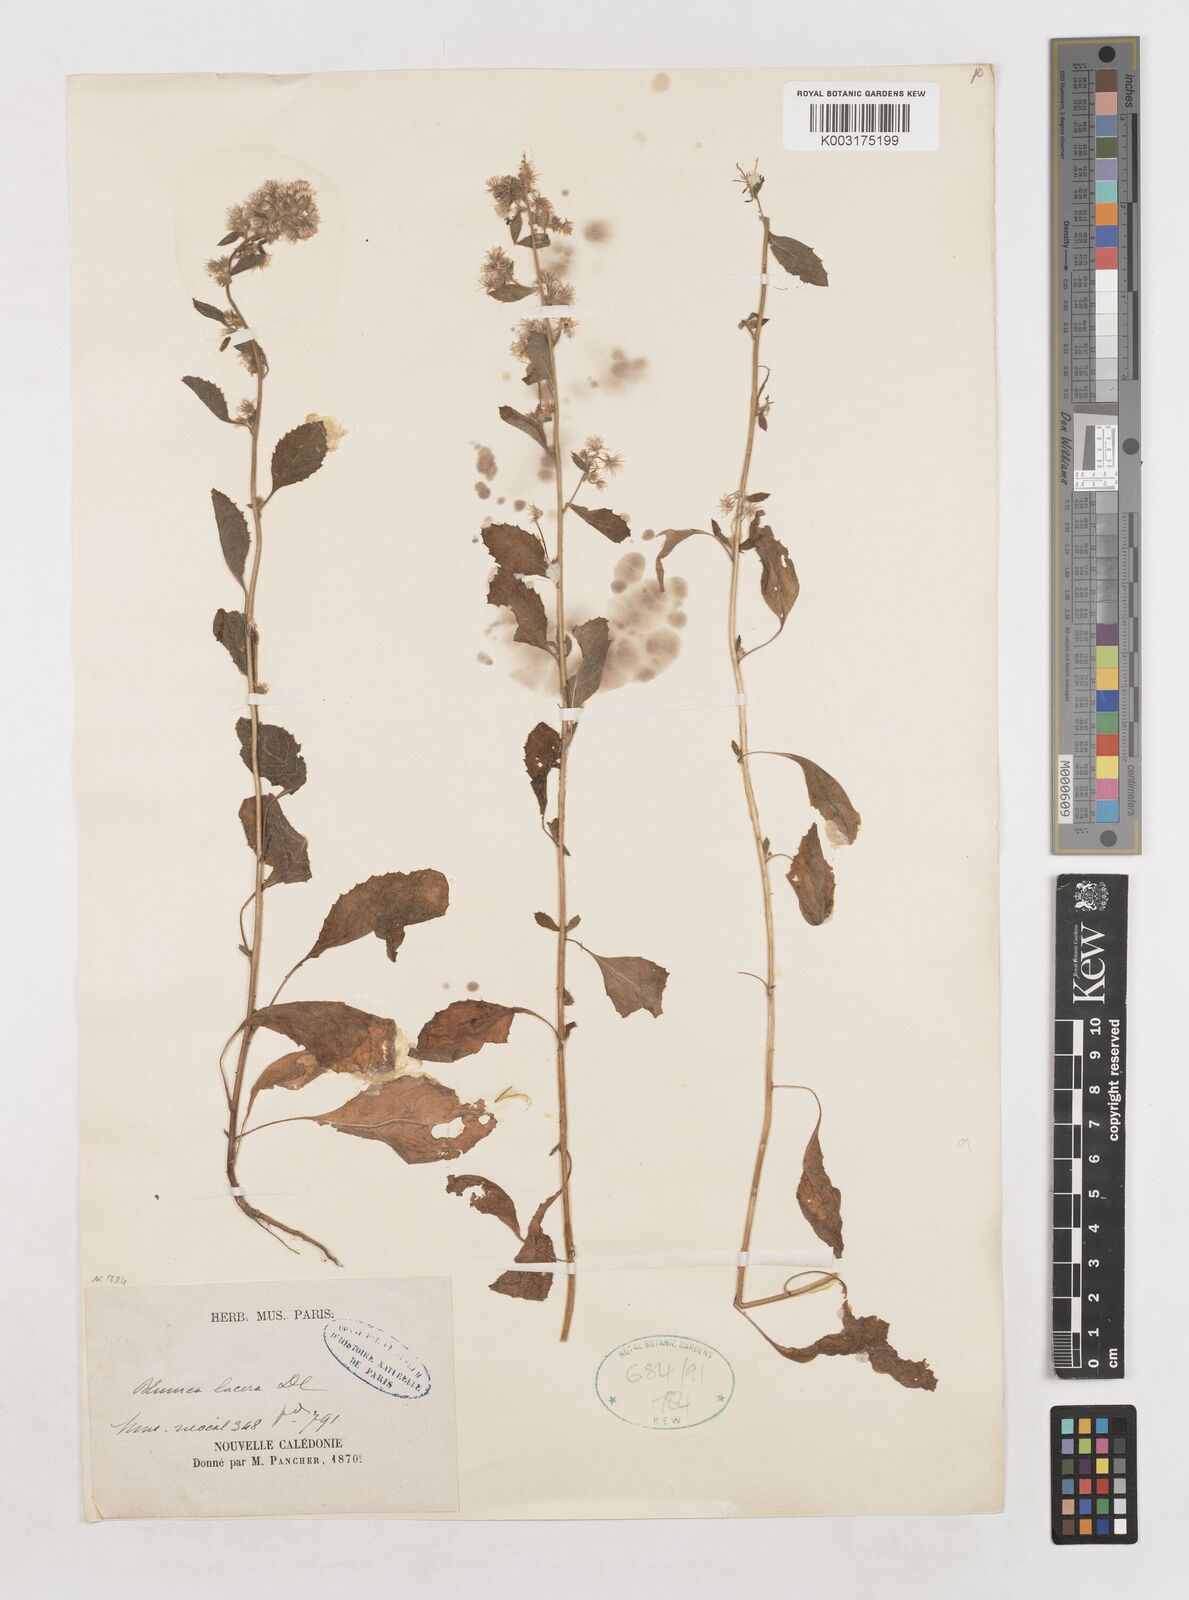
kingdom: Plantae
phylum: Tracheophyta
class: Magnoliopsida
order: Asterales
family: Asteraceae
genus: Blumea
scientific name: Blumea lacera
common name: Malay blumea
